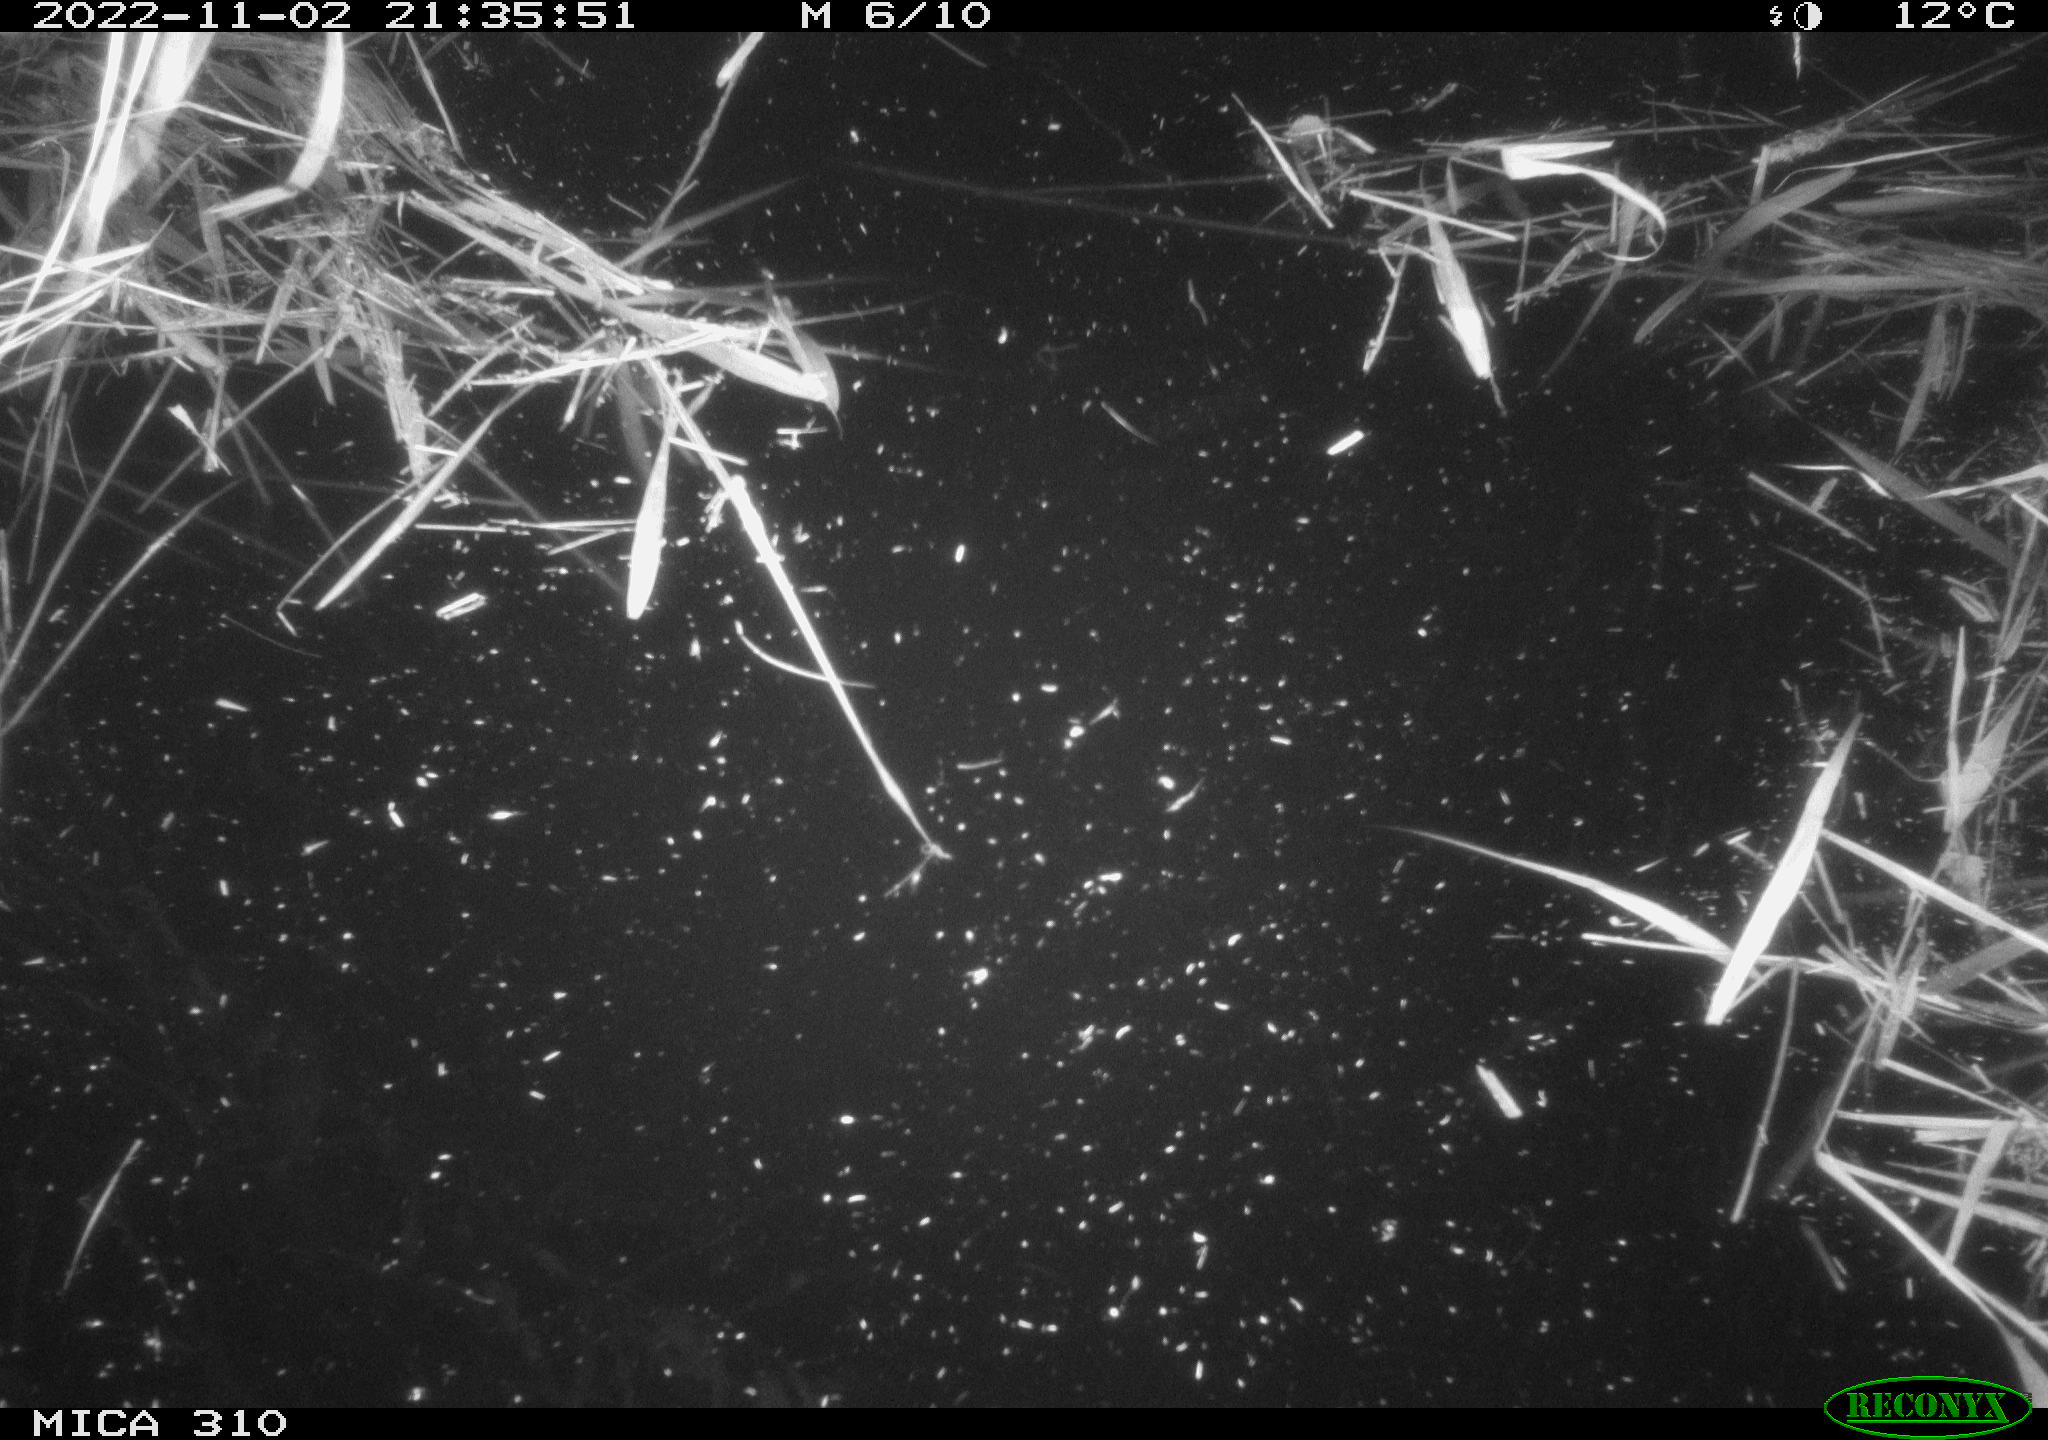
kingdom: Animalia
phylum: Chordata
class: Mammalia
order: Rodentia
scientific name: Rodentia
